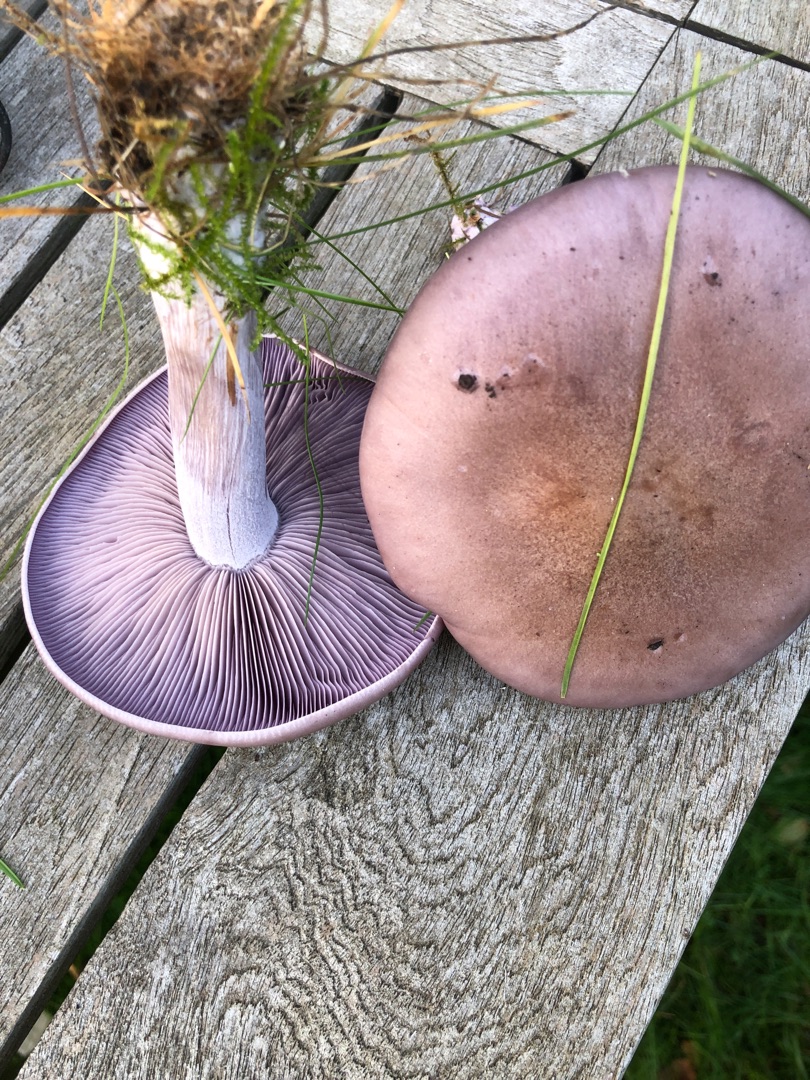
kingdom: Fungi
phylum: Basidiomycota
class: Agaricomycetes
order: Agaricales
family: Tricholomataceae
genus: Lepista
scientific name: Lepista nuda
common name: Violet hekseringshat
